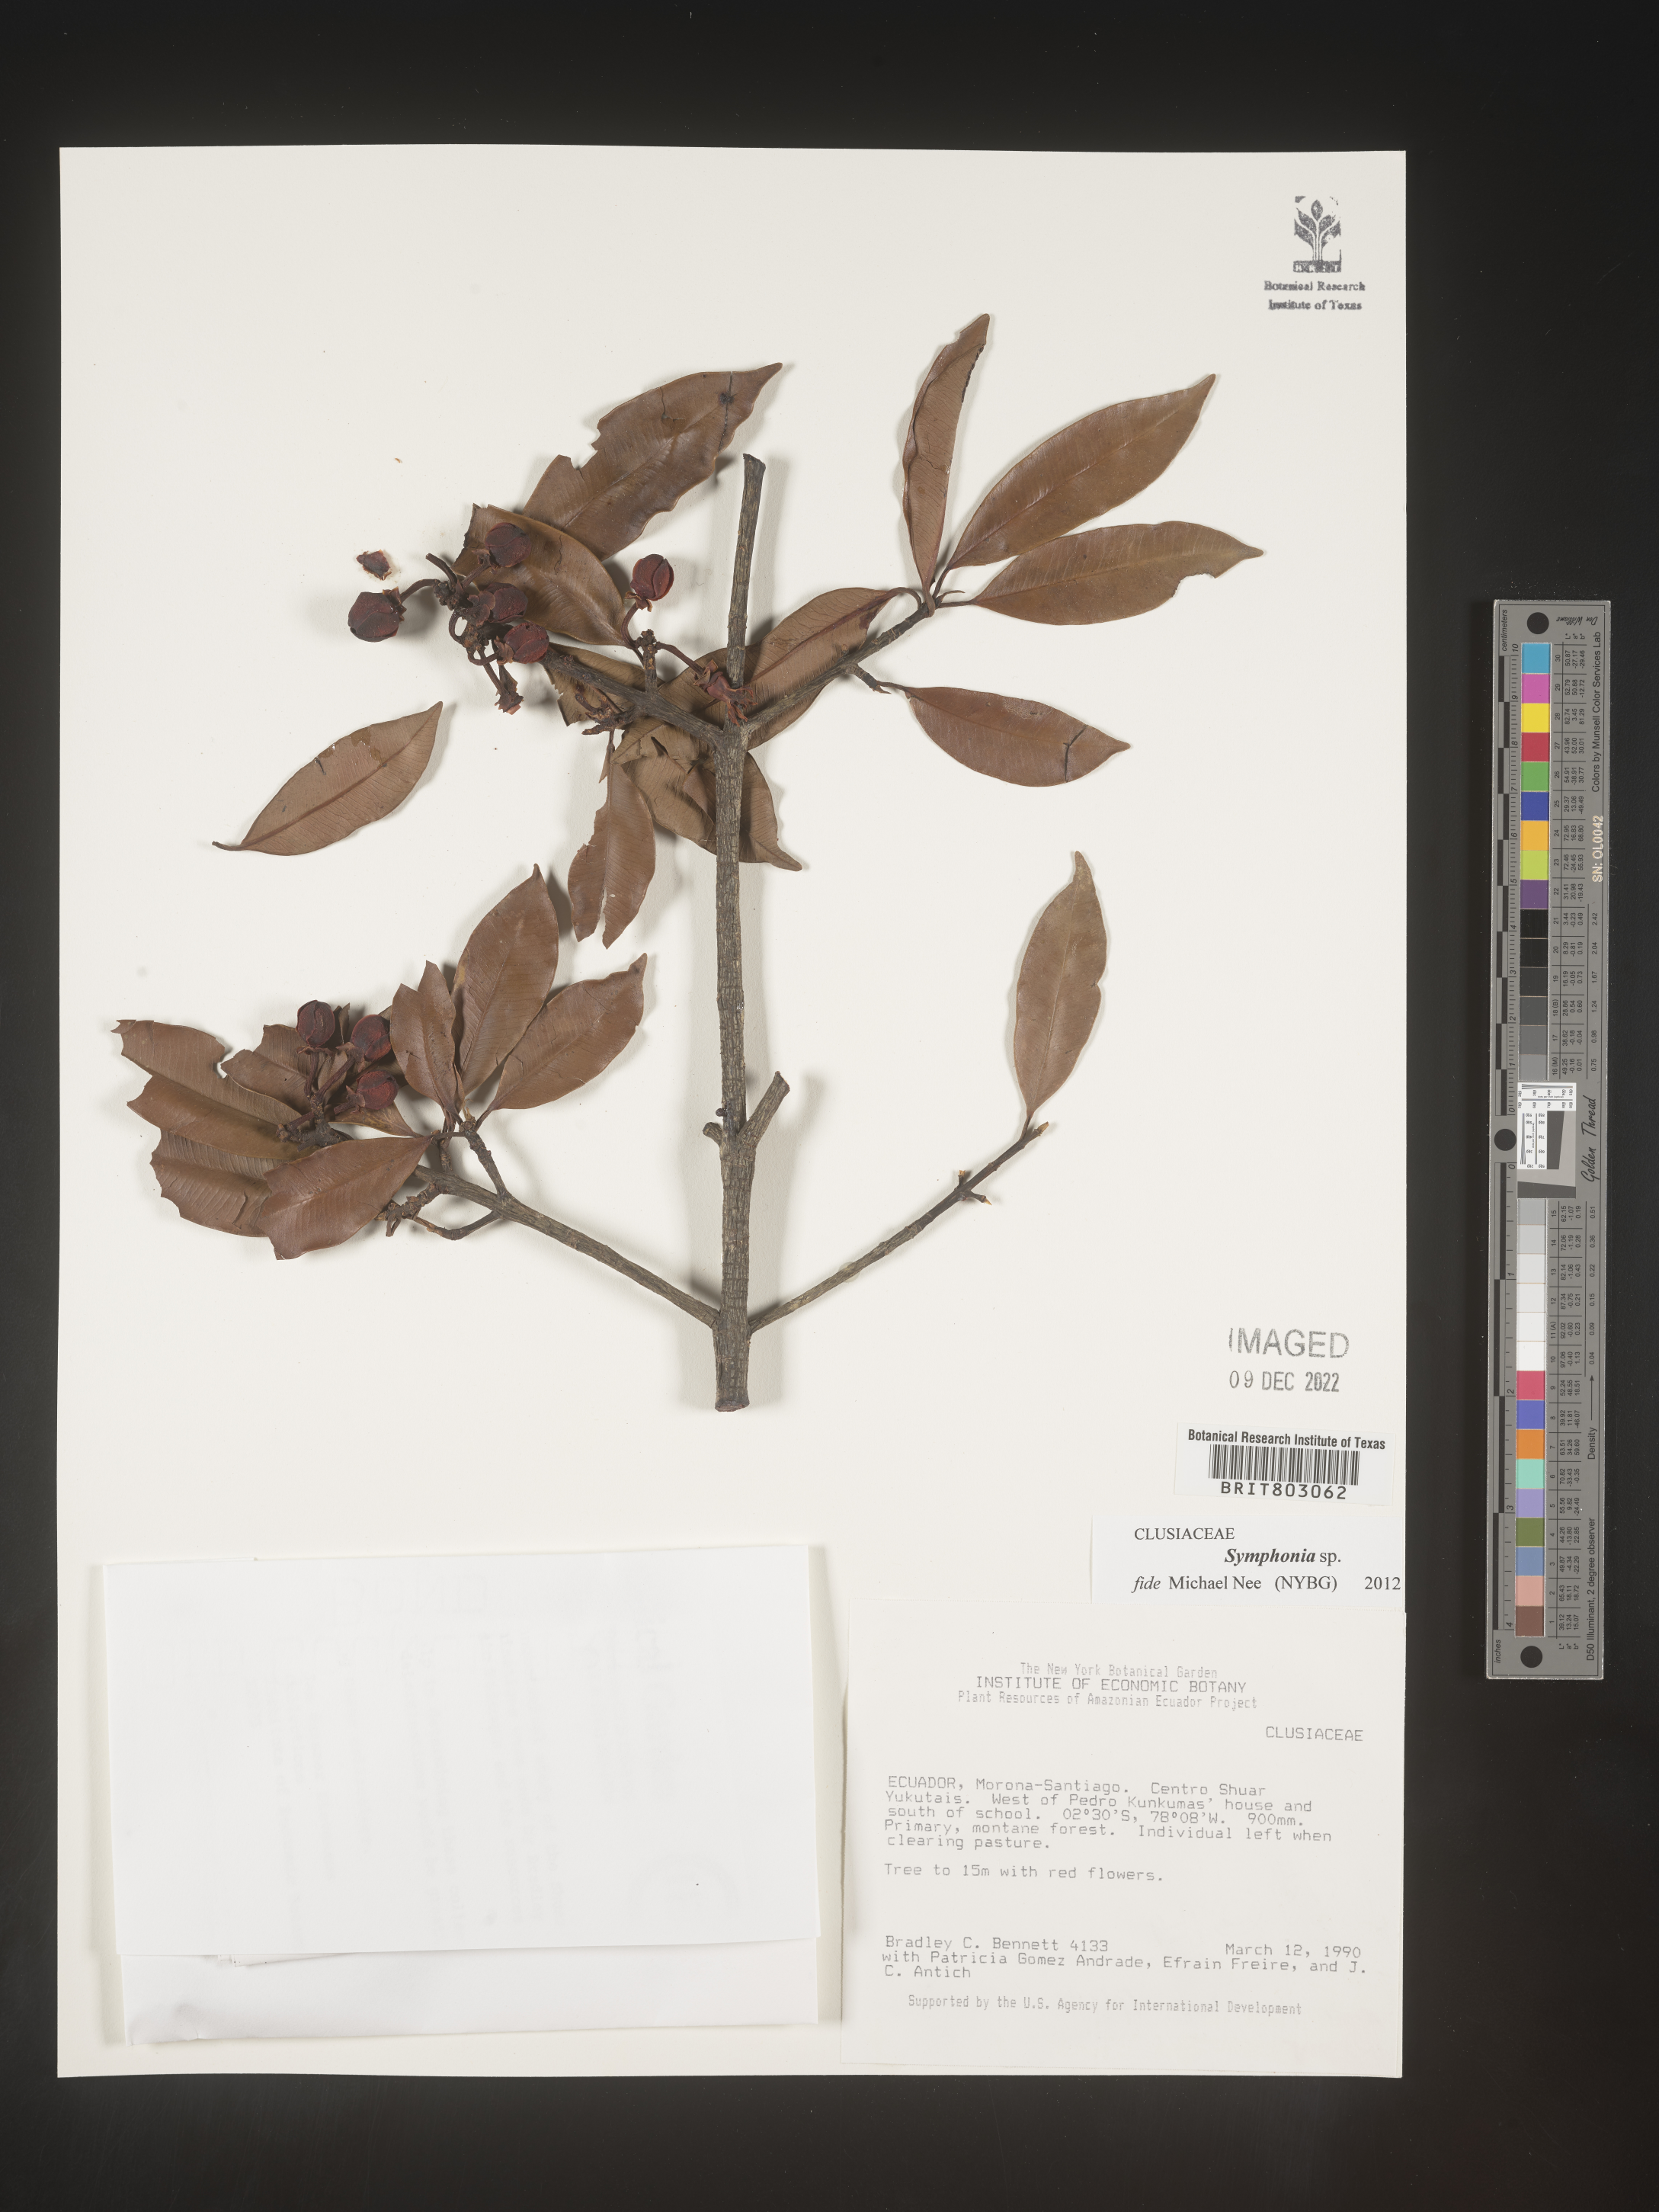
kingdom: Plantae
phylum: Tracheophyta
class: Magnoliopsida
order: Malpighiales
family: Clusiaceae
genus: Symphonia
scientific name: Symphonia
